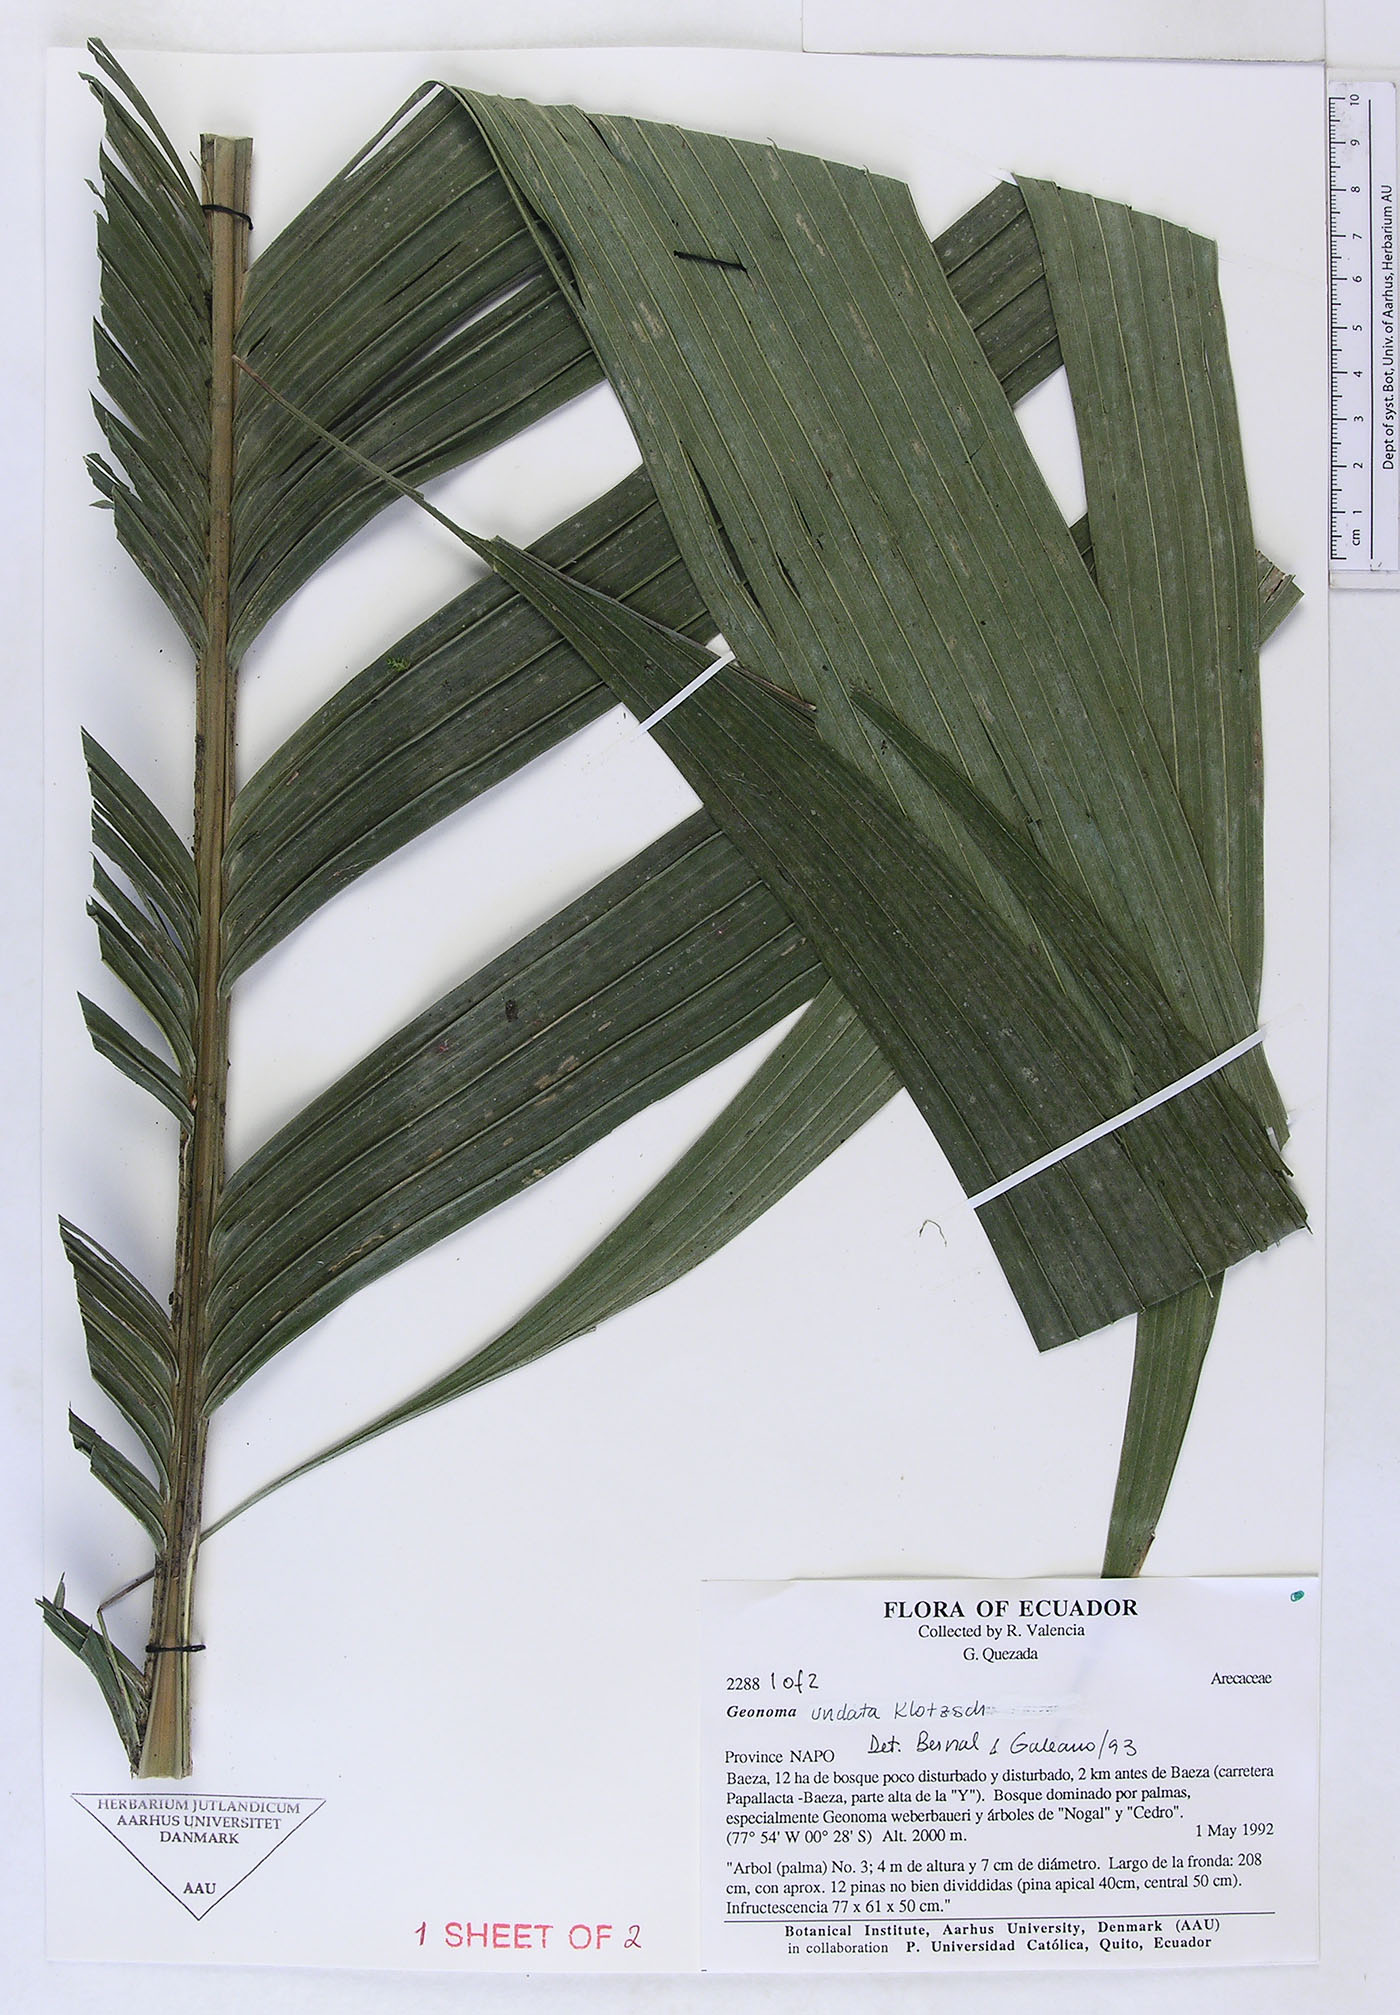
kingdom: Plantae
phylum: Tracheophyta
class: Liliopsida
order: Arecales
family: Arecaceae
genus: Geonoma
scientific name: Geonoma undata
